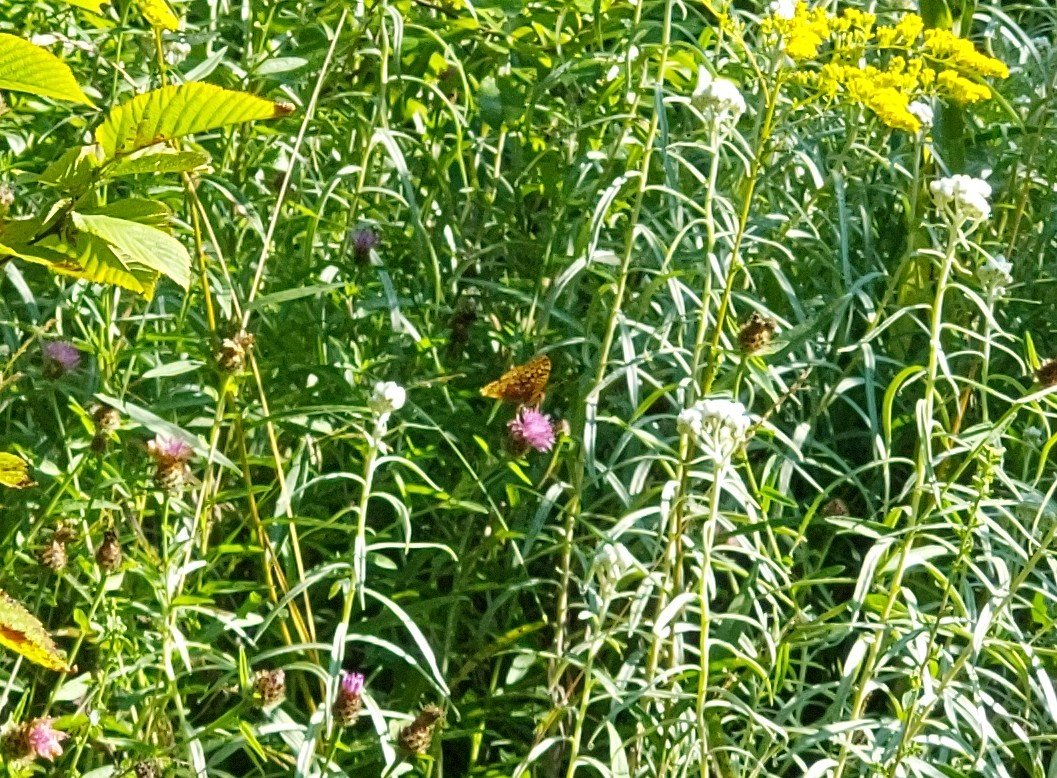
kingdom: Animalia
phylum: Arthropoda
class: Insecta
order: Lepidoptera
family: Nymphalidae
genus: Speyeria
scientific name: Speyeria cybele
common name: Great Spangled Fritillary
